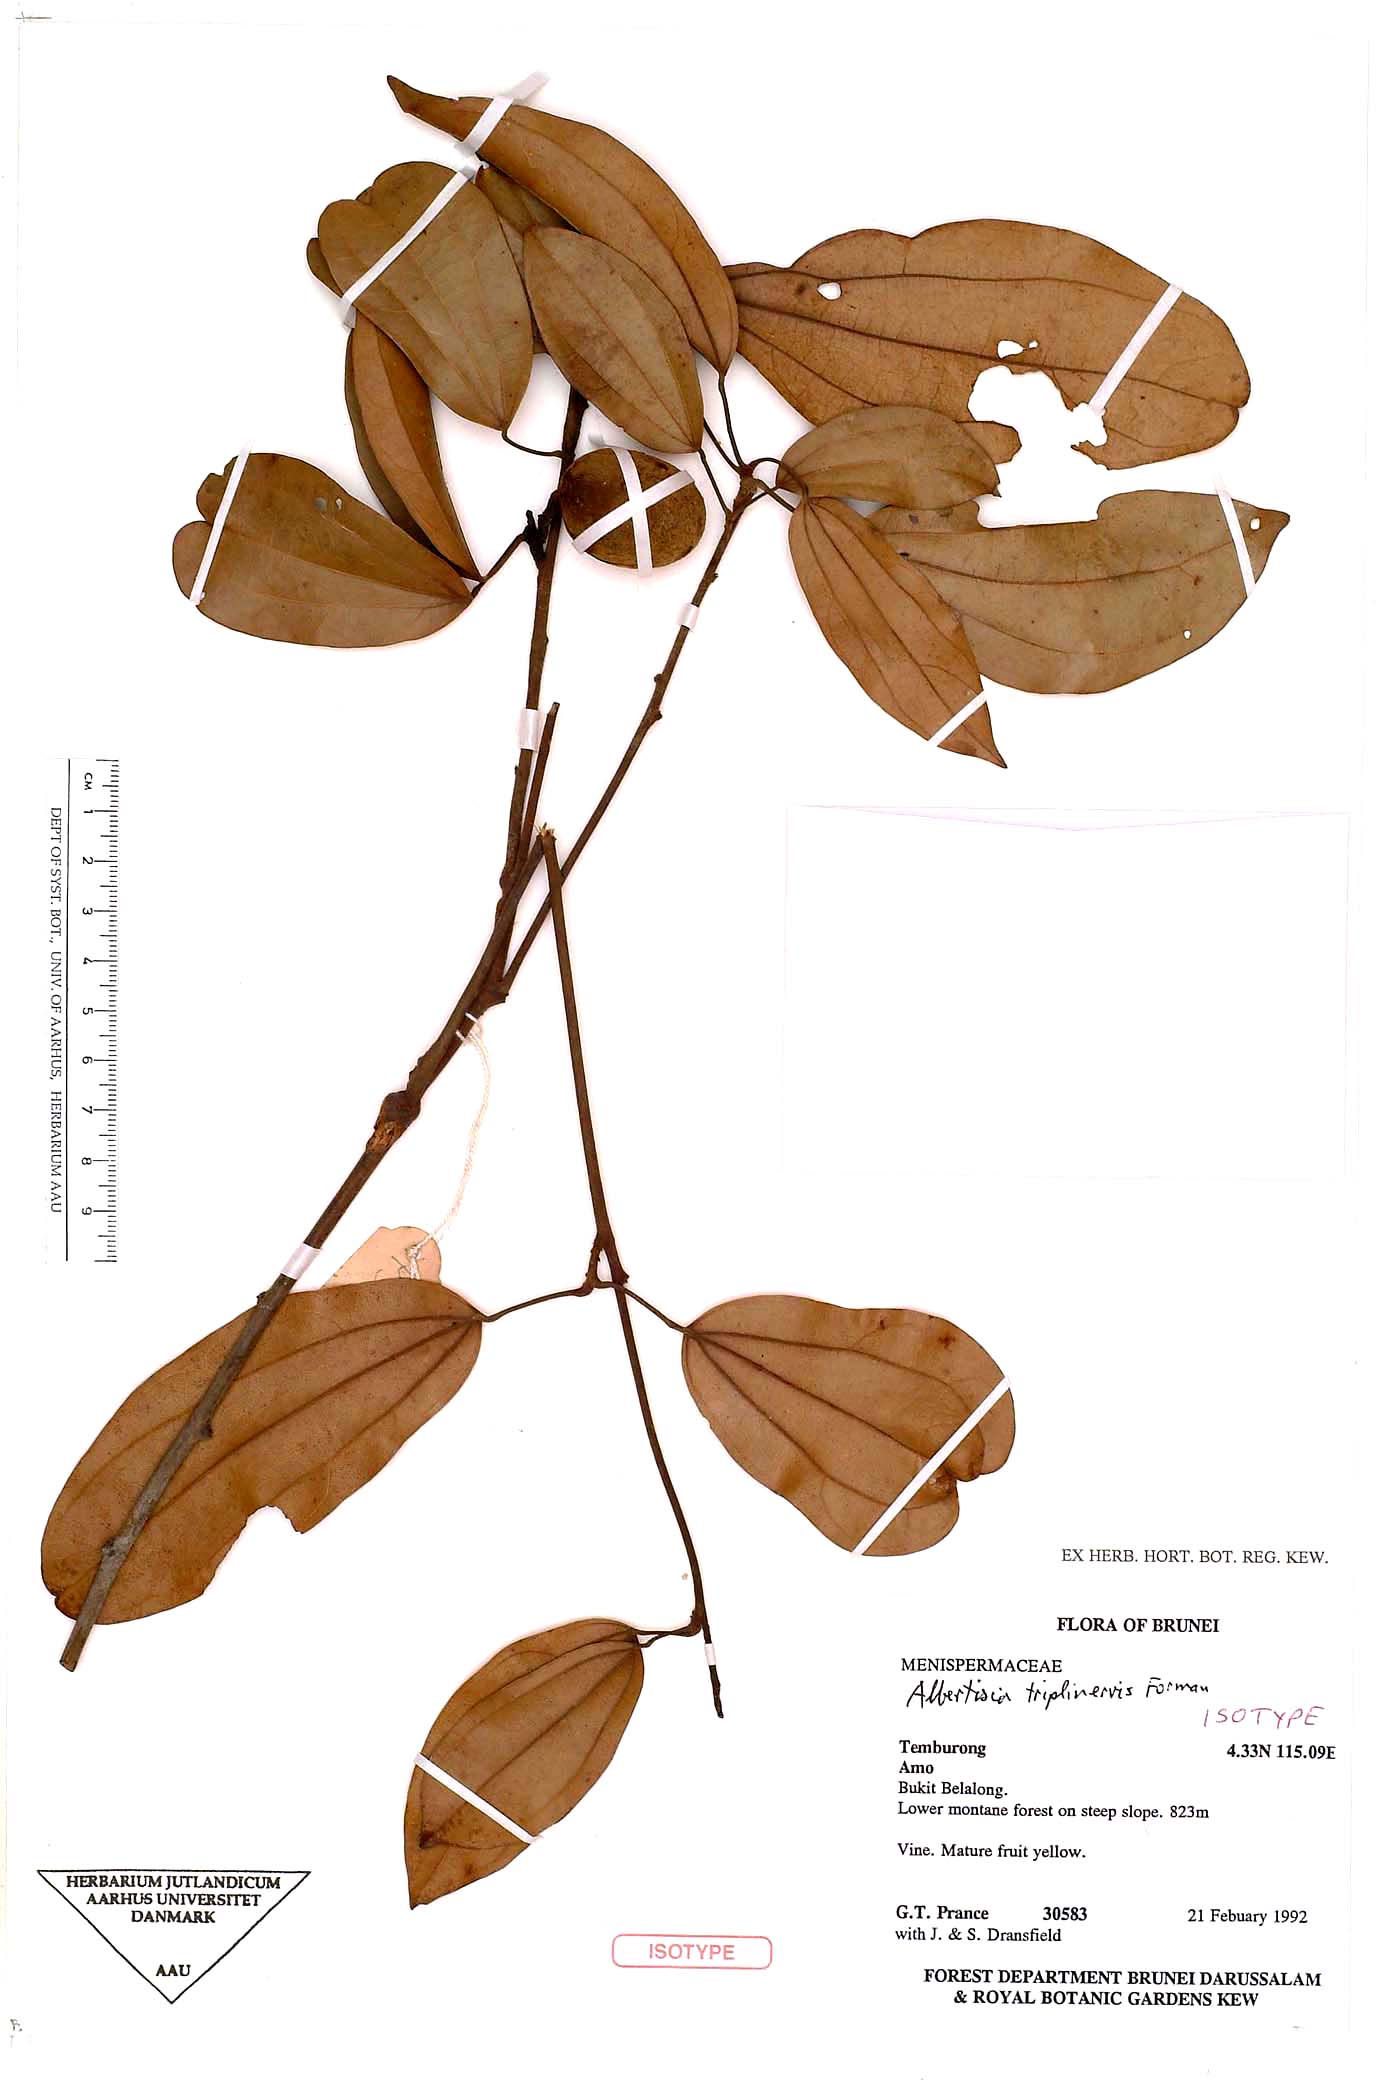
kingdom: Plantae
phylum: Tracheophyta
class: Magnoliopsida
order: Ranunculales
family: Menispermaceae
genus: Albertisia
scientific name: Albertisia triplinervis
